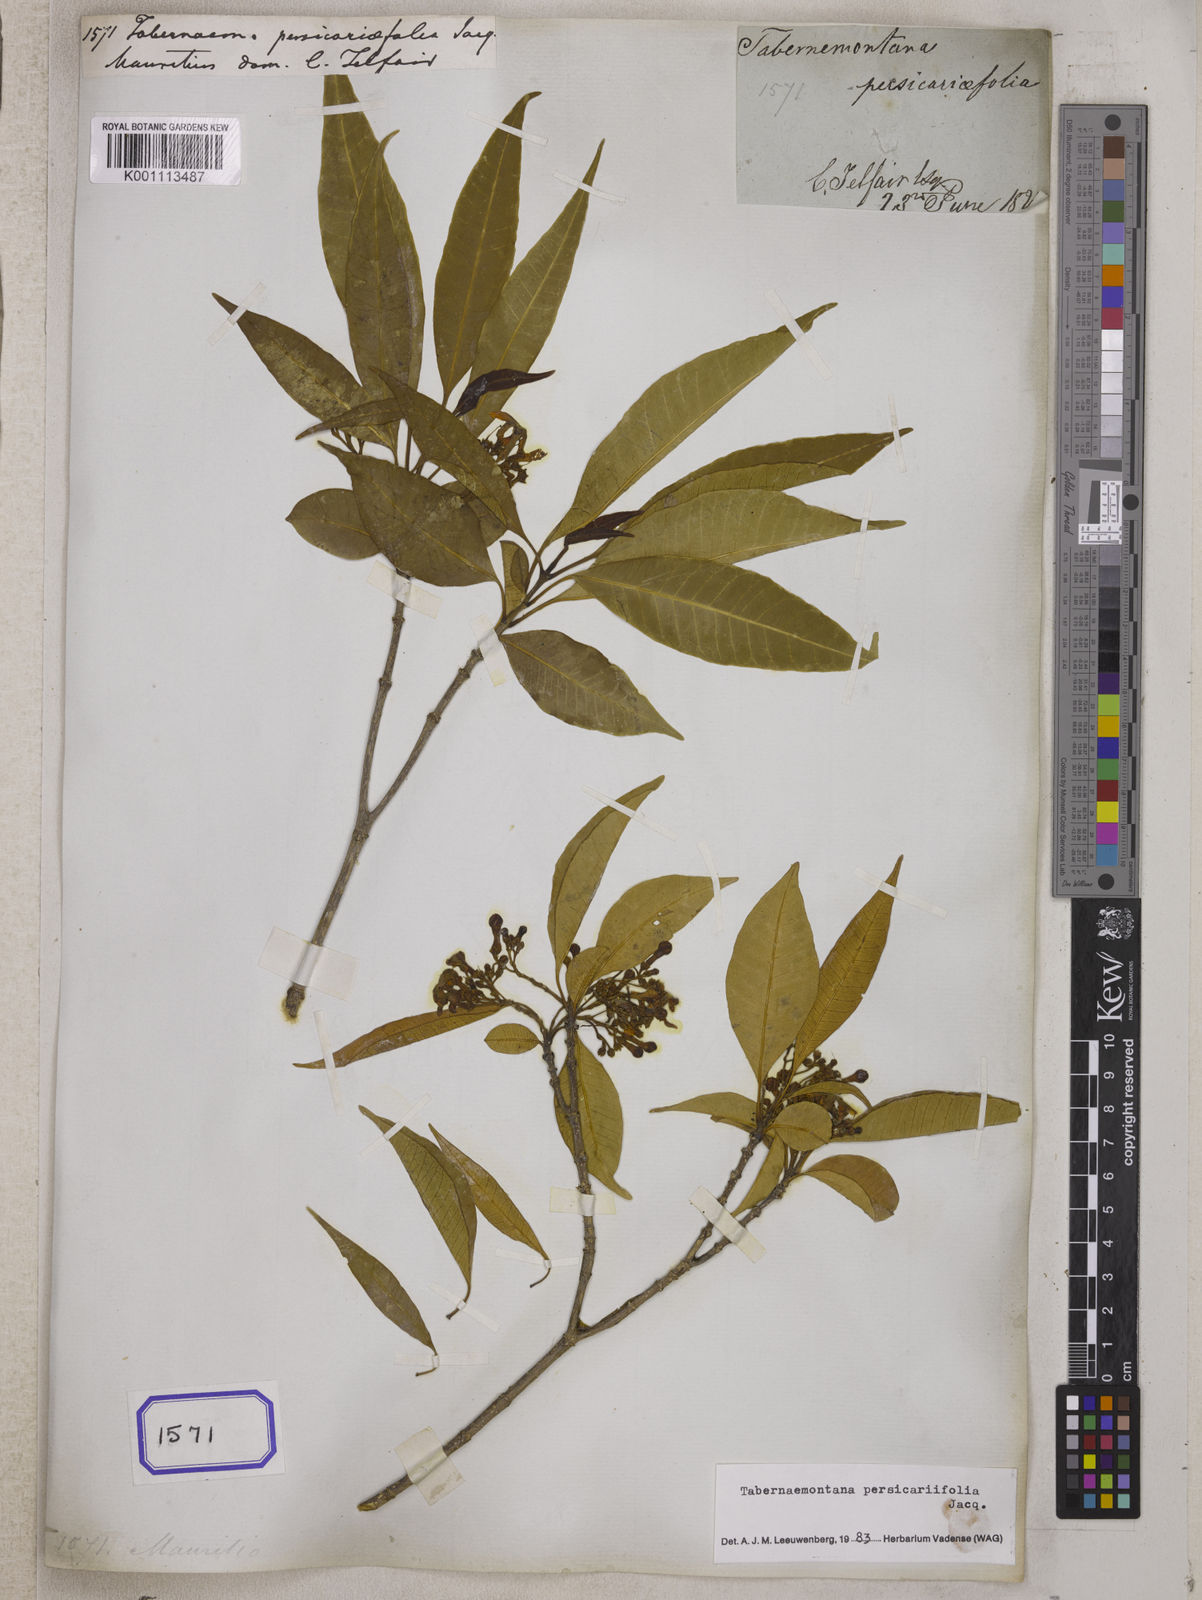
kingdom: Plantae
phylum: Tracheophyta
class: Magnoliopsida
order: Gentianales
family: Apocynaceae
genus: Tabernaemontana
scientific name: Tabernaemontana persicariifolia
